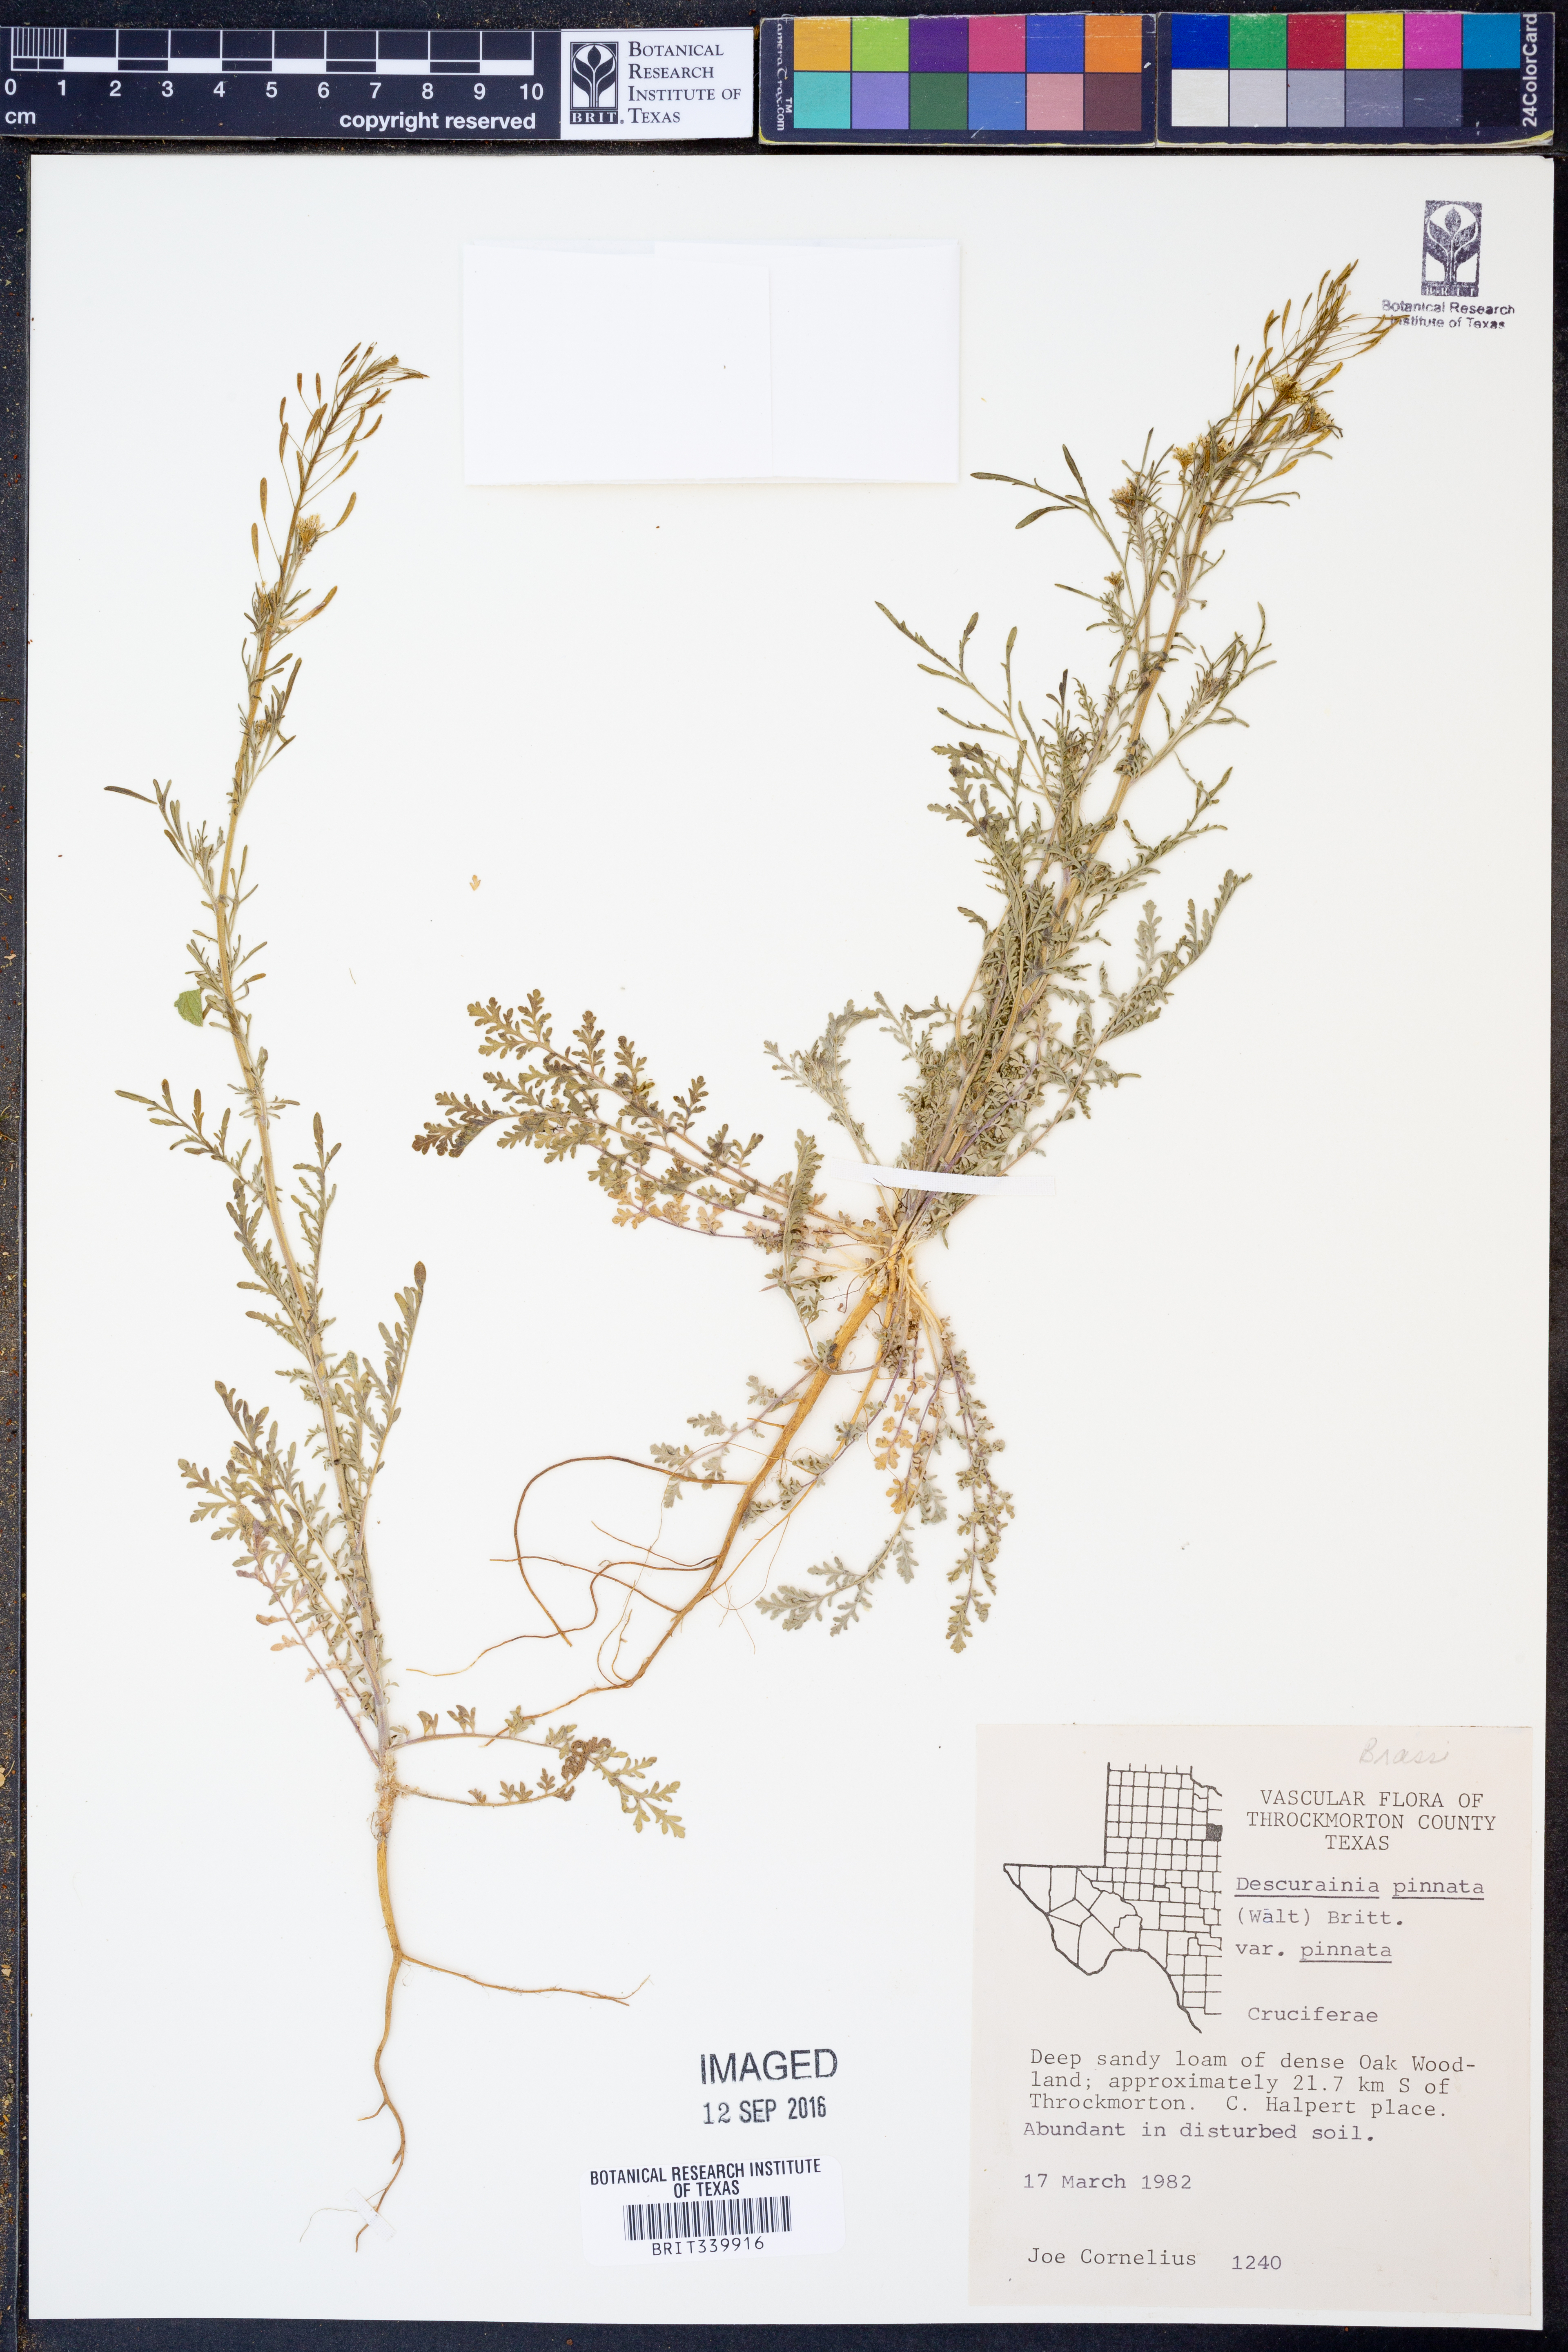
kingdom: Plantae
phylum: Tracheophyta
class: Magnoliopsida
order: Brassicales
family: Brassicaceae
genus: Descurainia
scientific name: Descurainia pinnata
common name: Western tansy mustard
